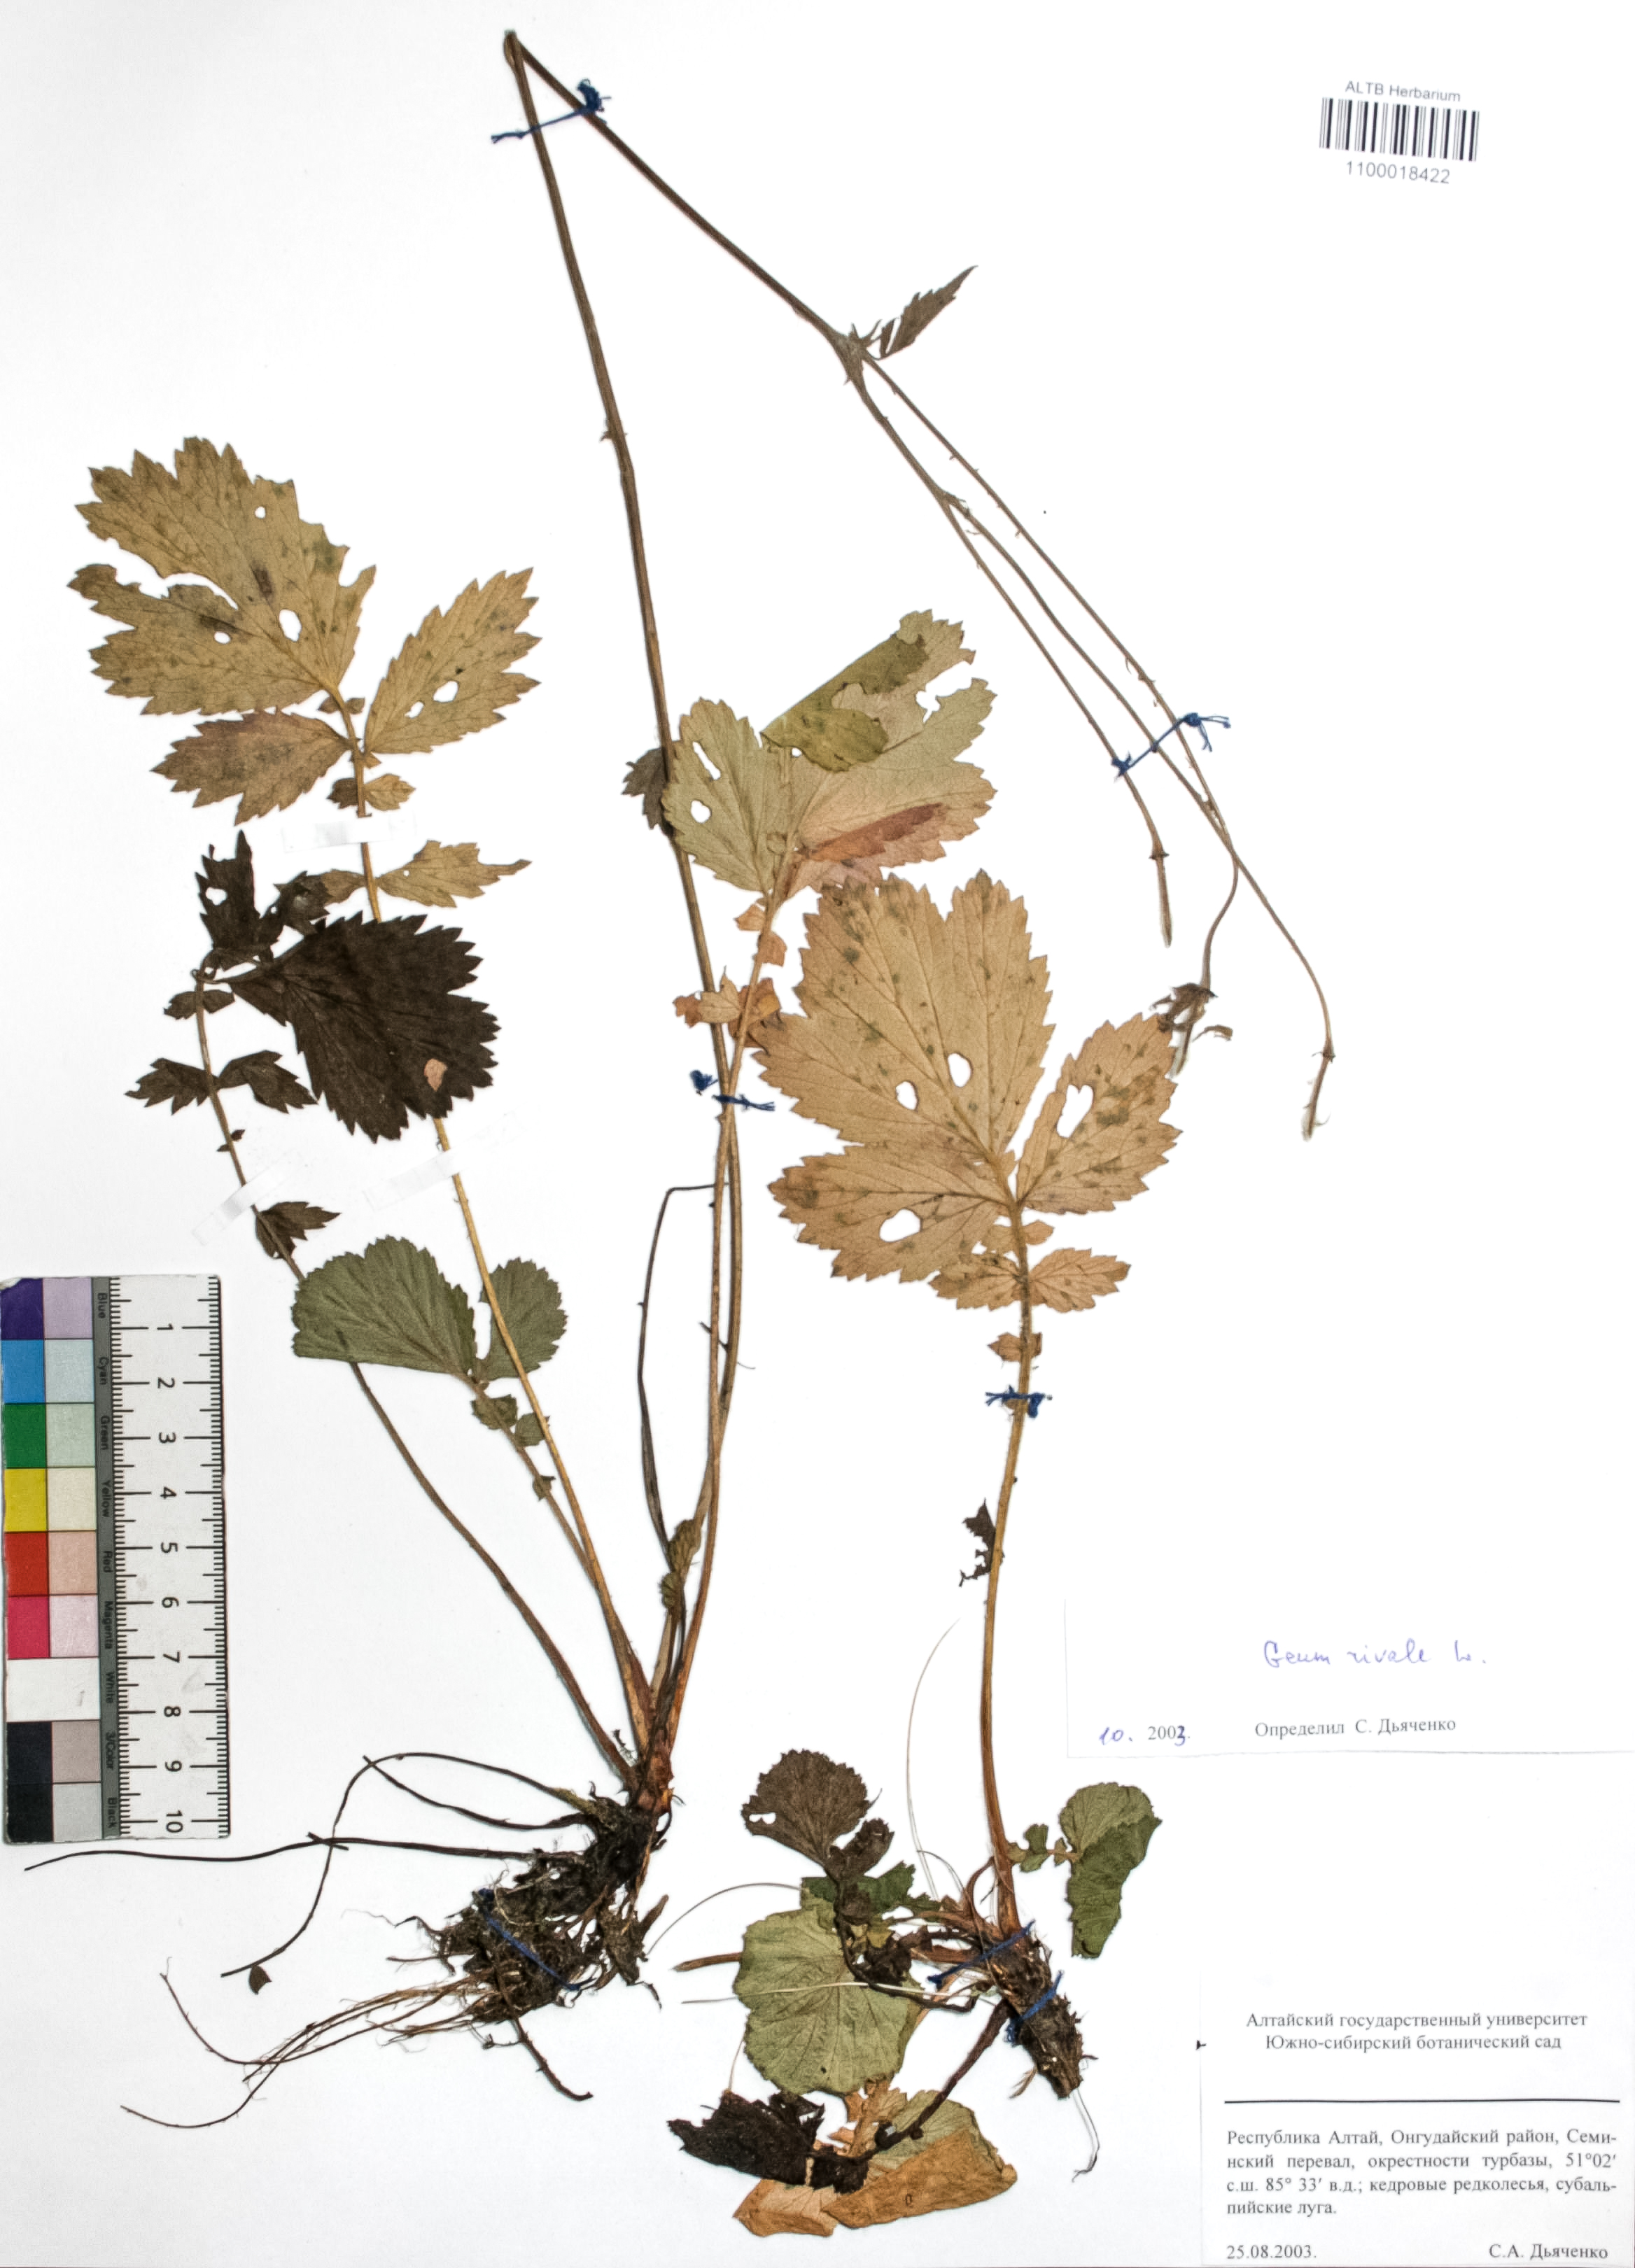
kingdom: Plantae
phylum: Tracheophyta
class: Magnoliopsida
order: Rosales
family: Rosaceae
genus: Geum
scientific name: Geum rivale
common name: Water avens
